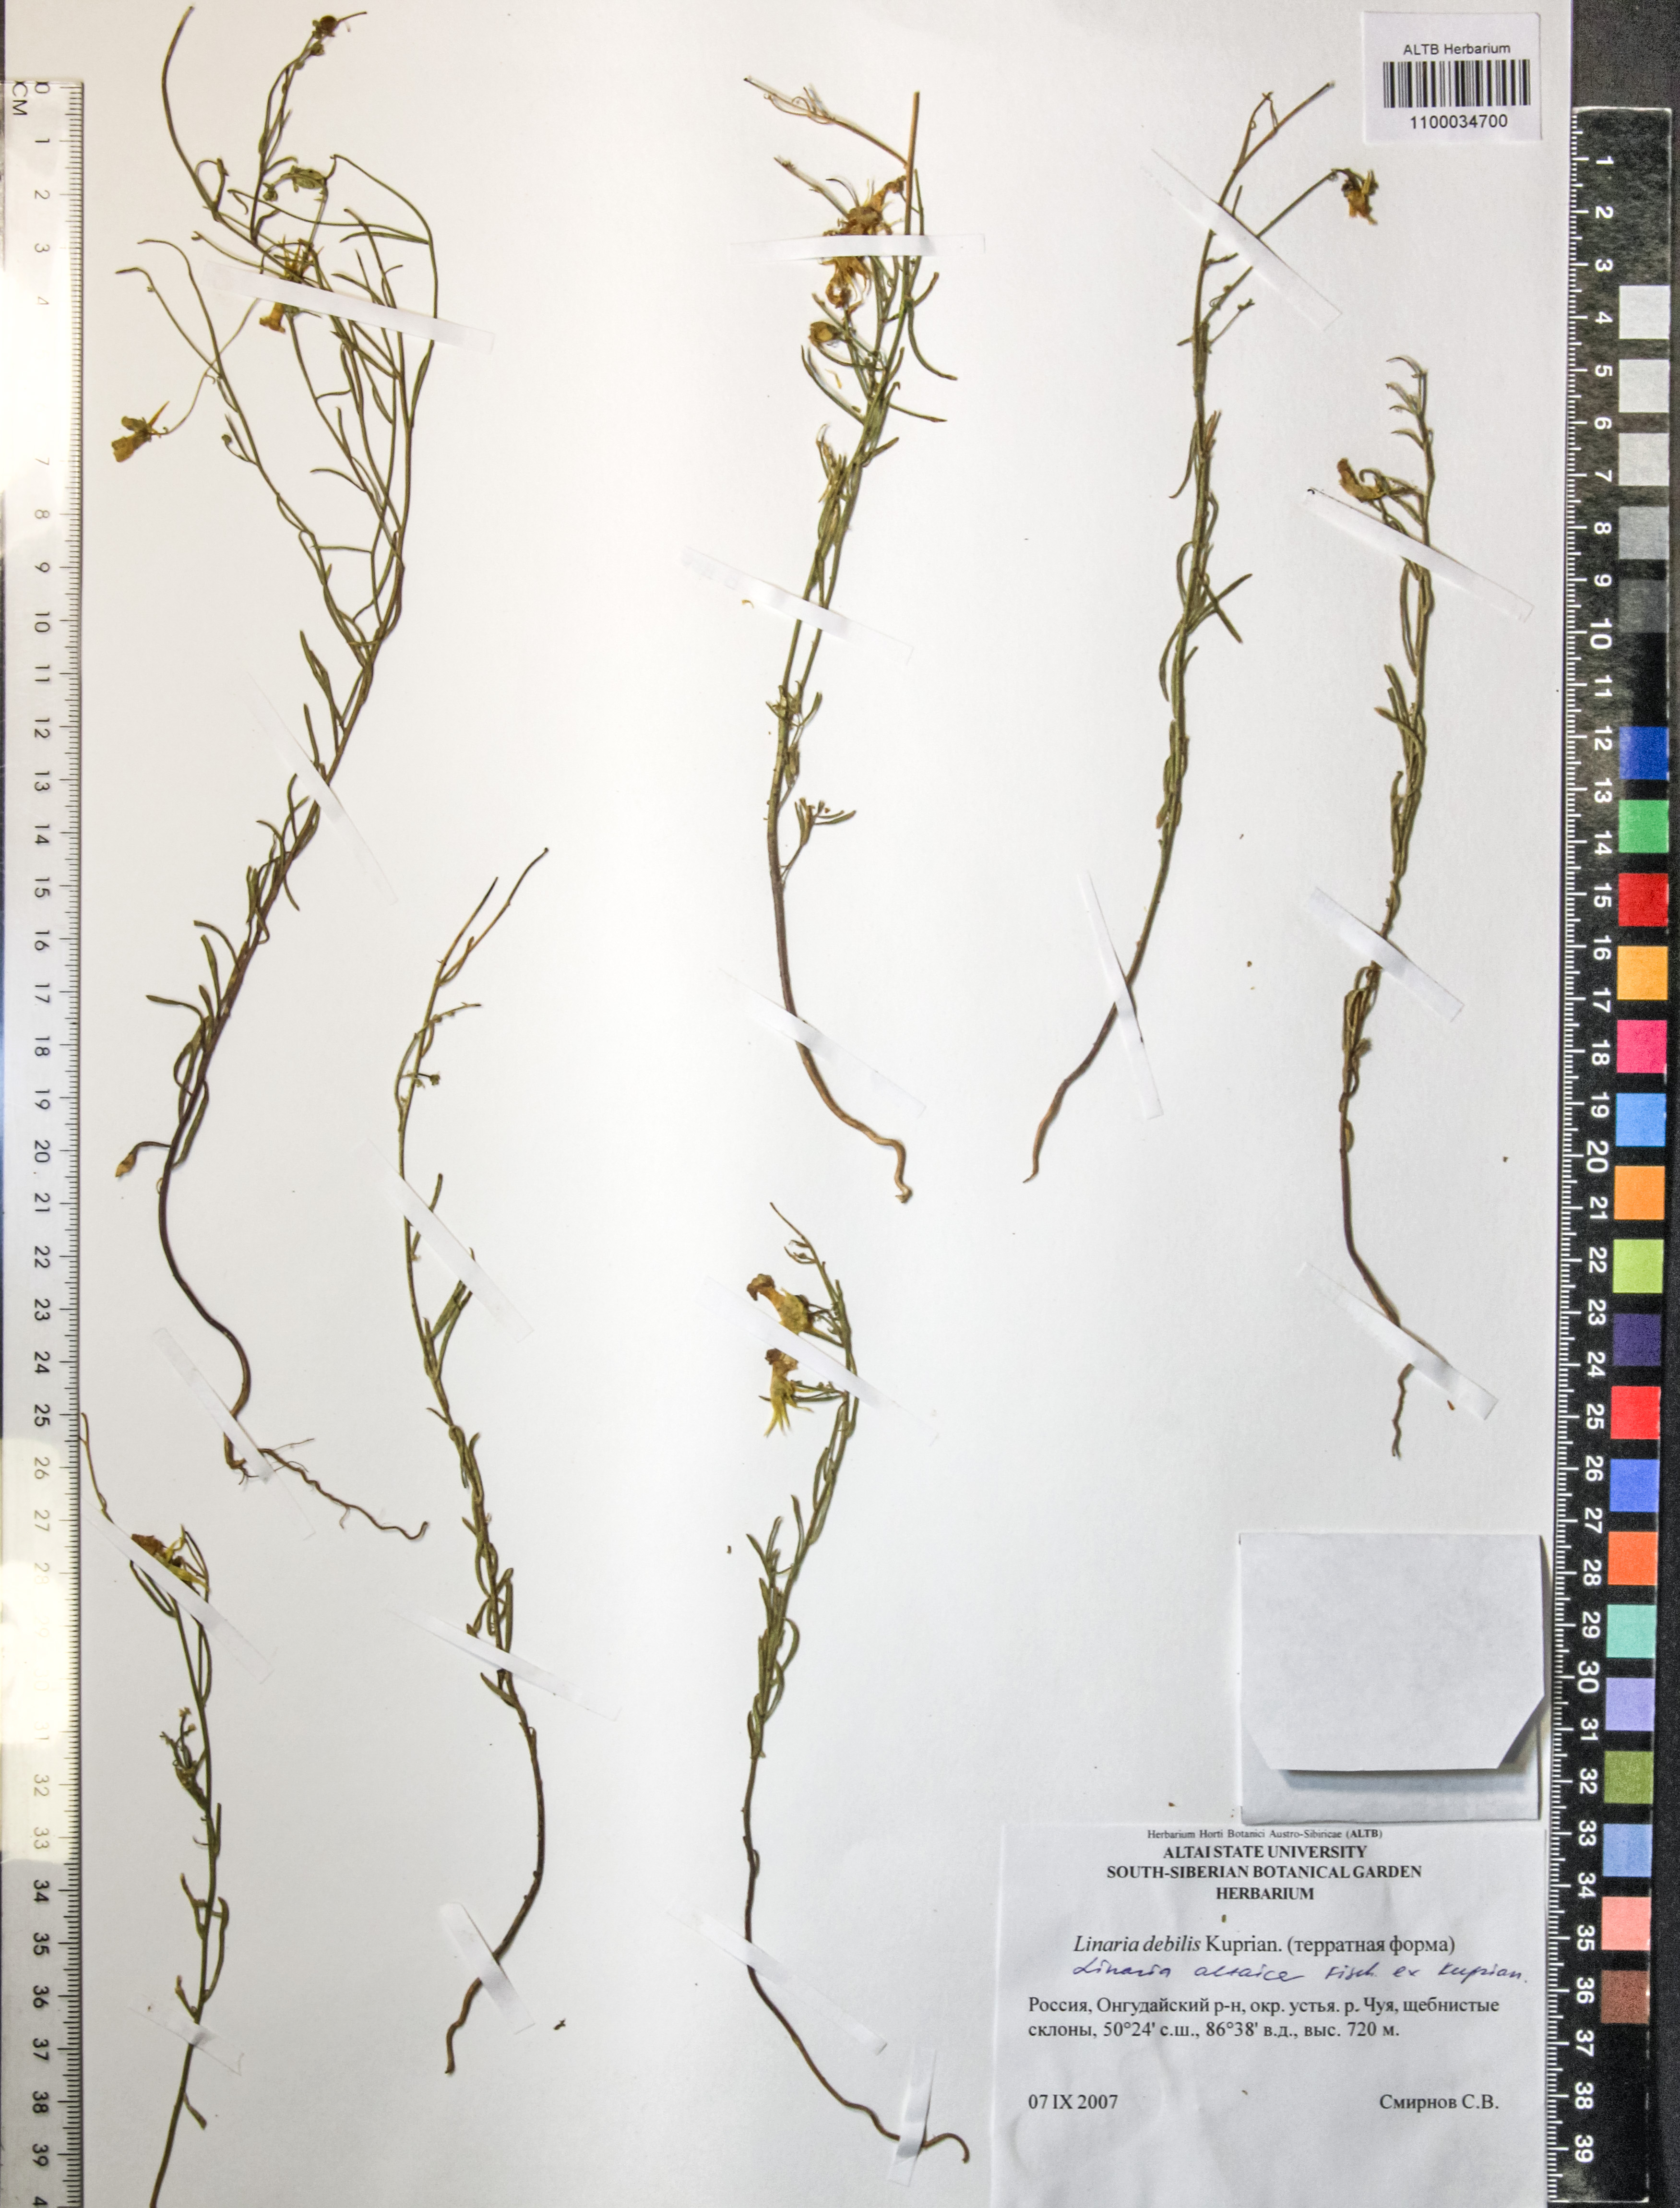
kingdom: Plantae
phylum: Tracheophyta
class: Magnoliopsida
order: Lamiales
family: Plantaginaceae
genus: Linaria
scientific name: Linaria altaica
